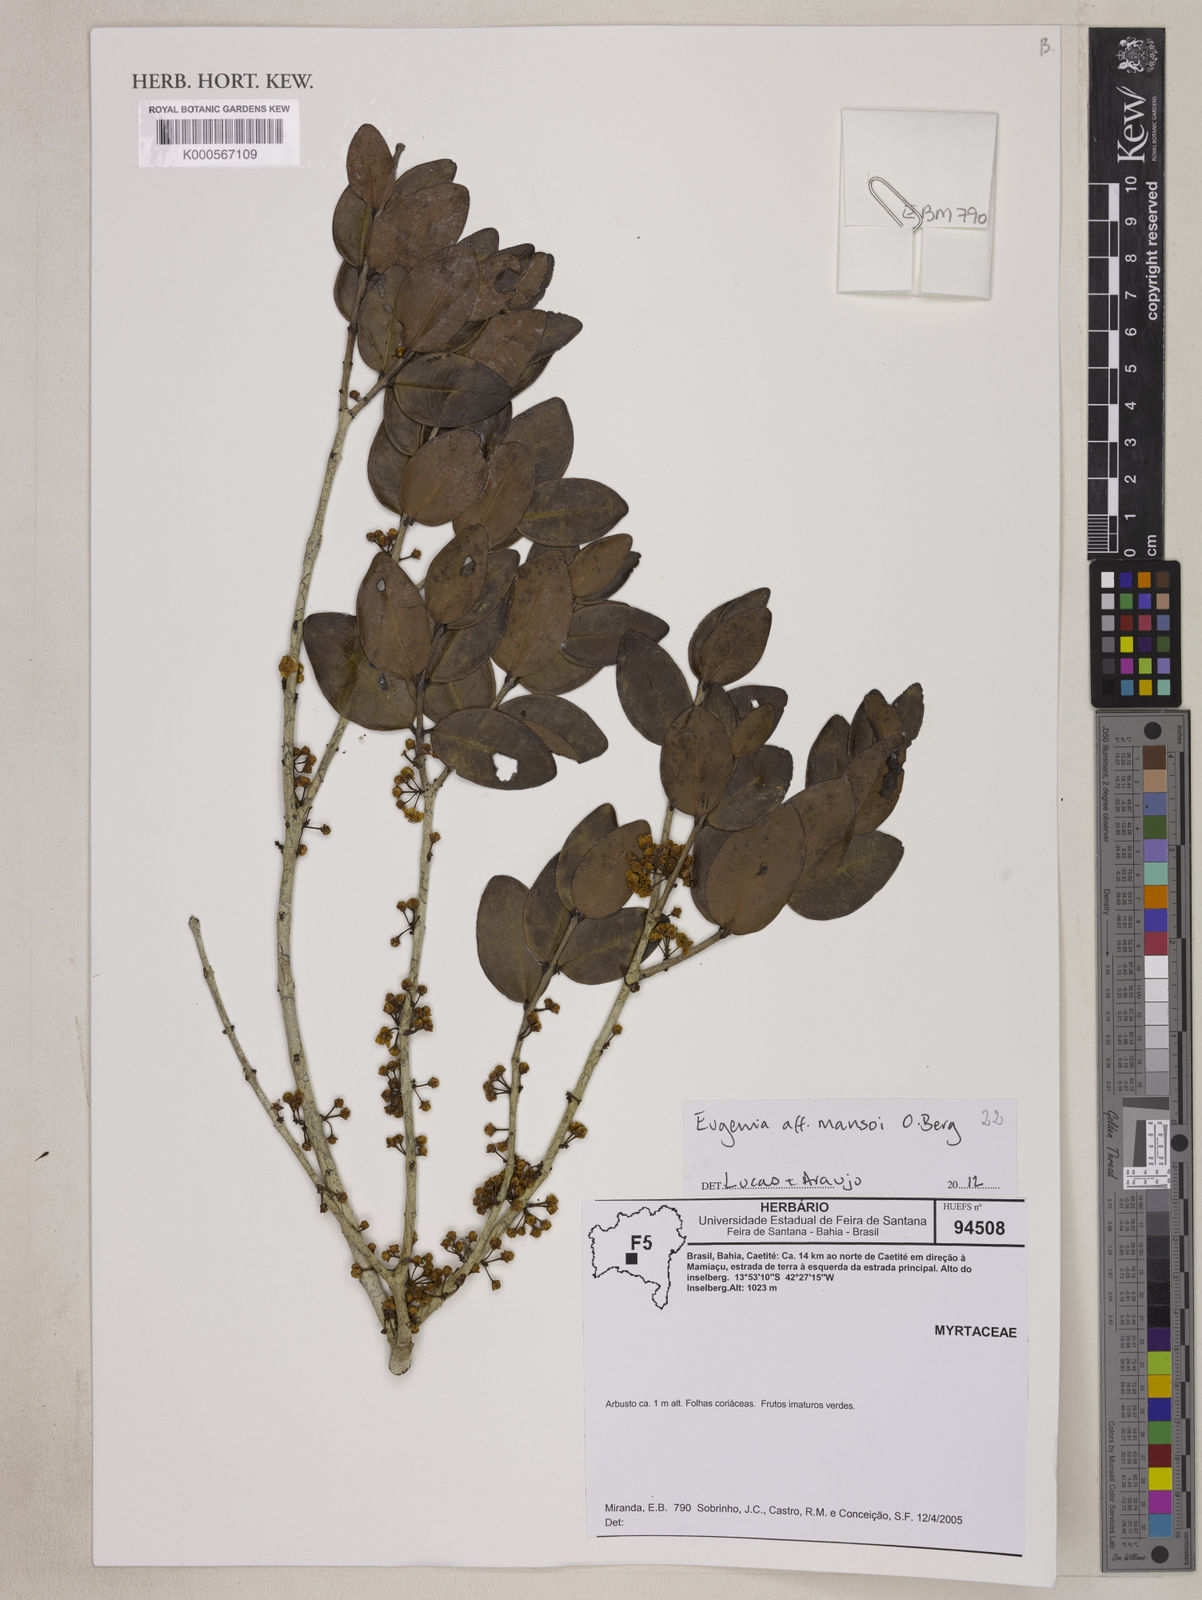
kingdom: Plantae
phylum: Tracheophyta
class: Magnoliopsida
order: Myrtales
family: Myrtaceae
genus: Eugenia
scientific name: Eugenia mansoi
